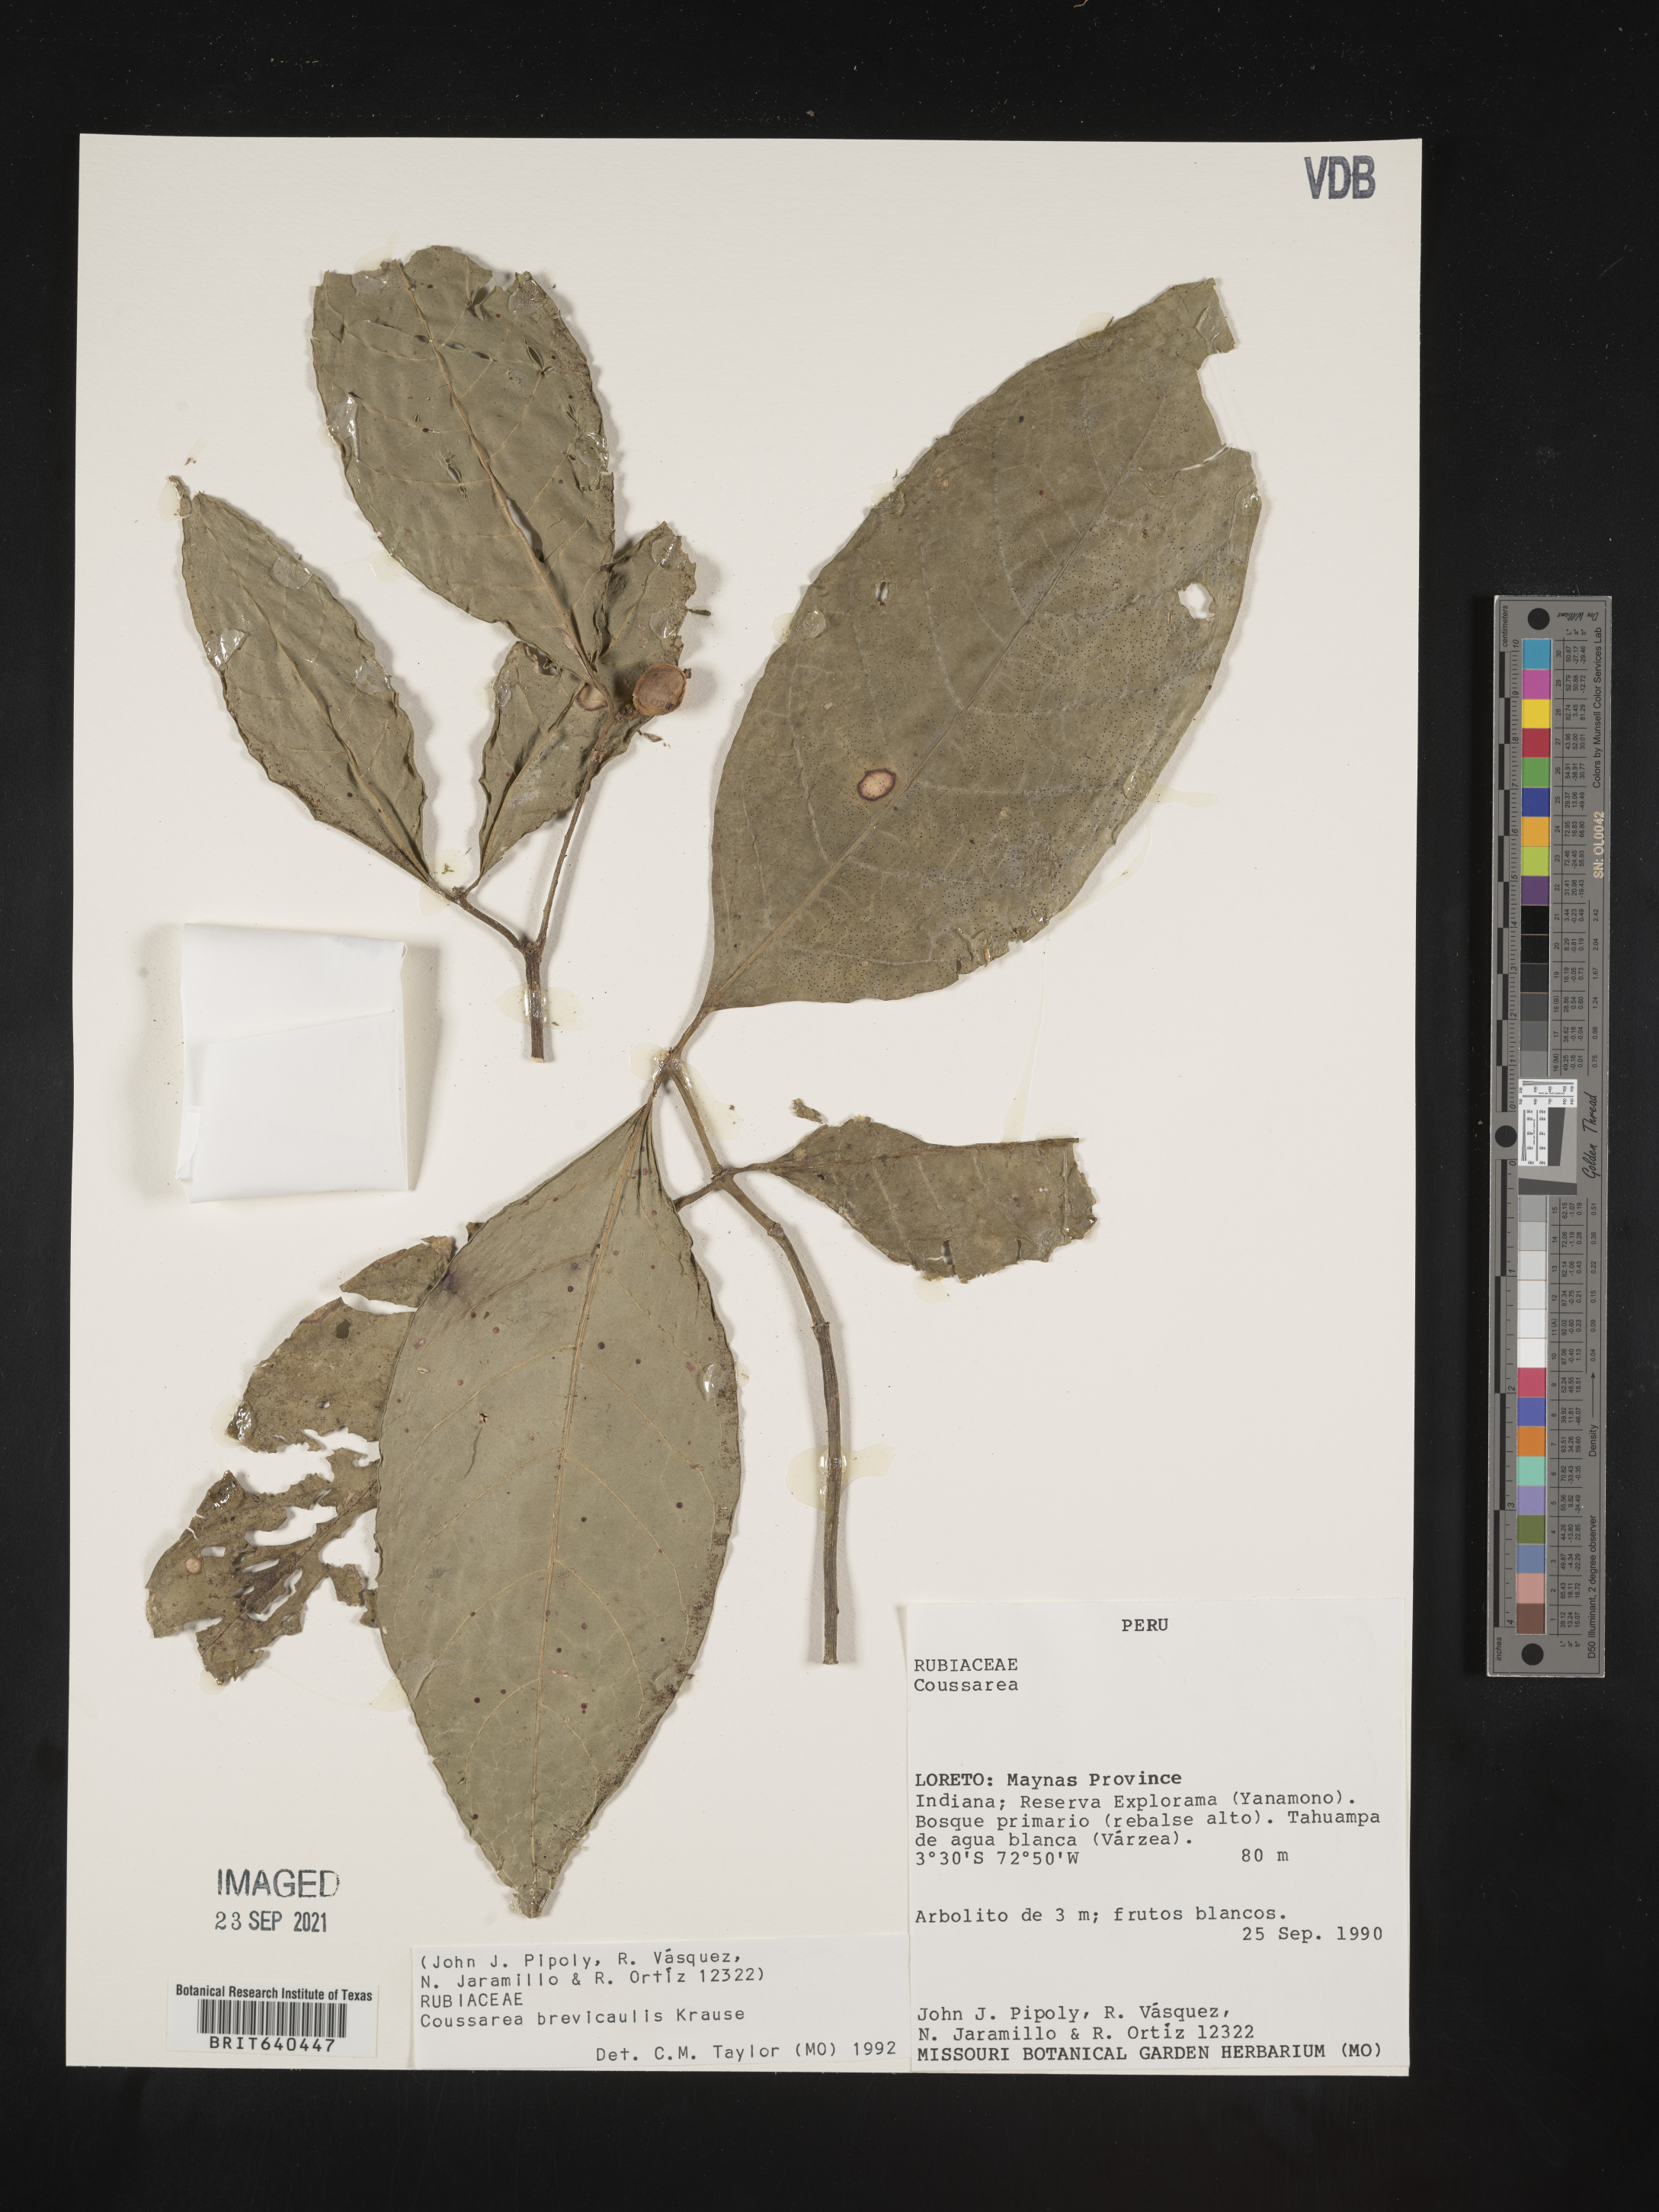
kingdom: Plantae
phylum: Tracheophyta
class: Magnoliopsida
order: Gentianales
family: Rubiaceae
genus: Coussarea
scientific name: Coussarea
